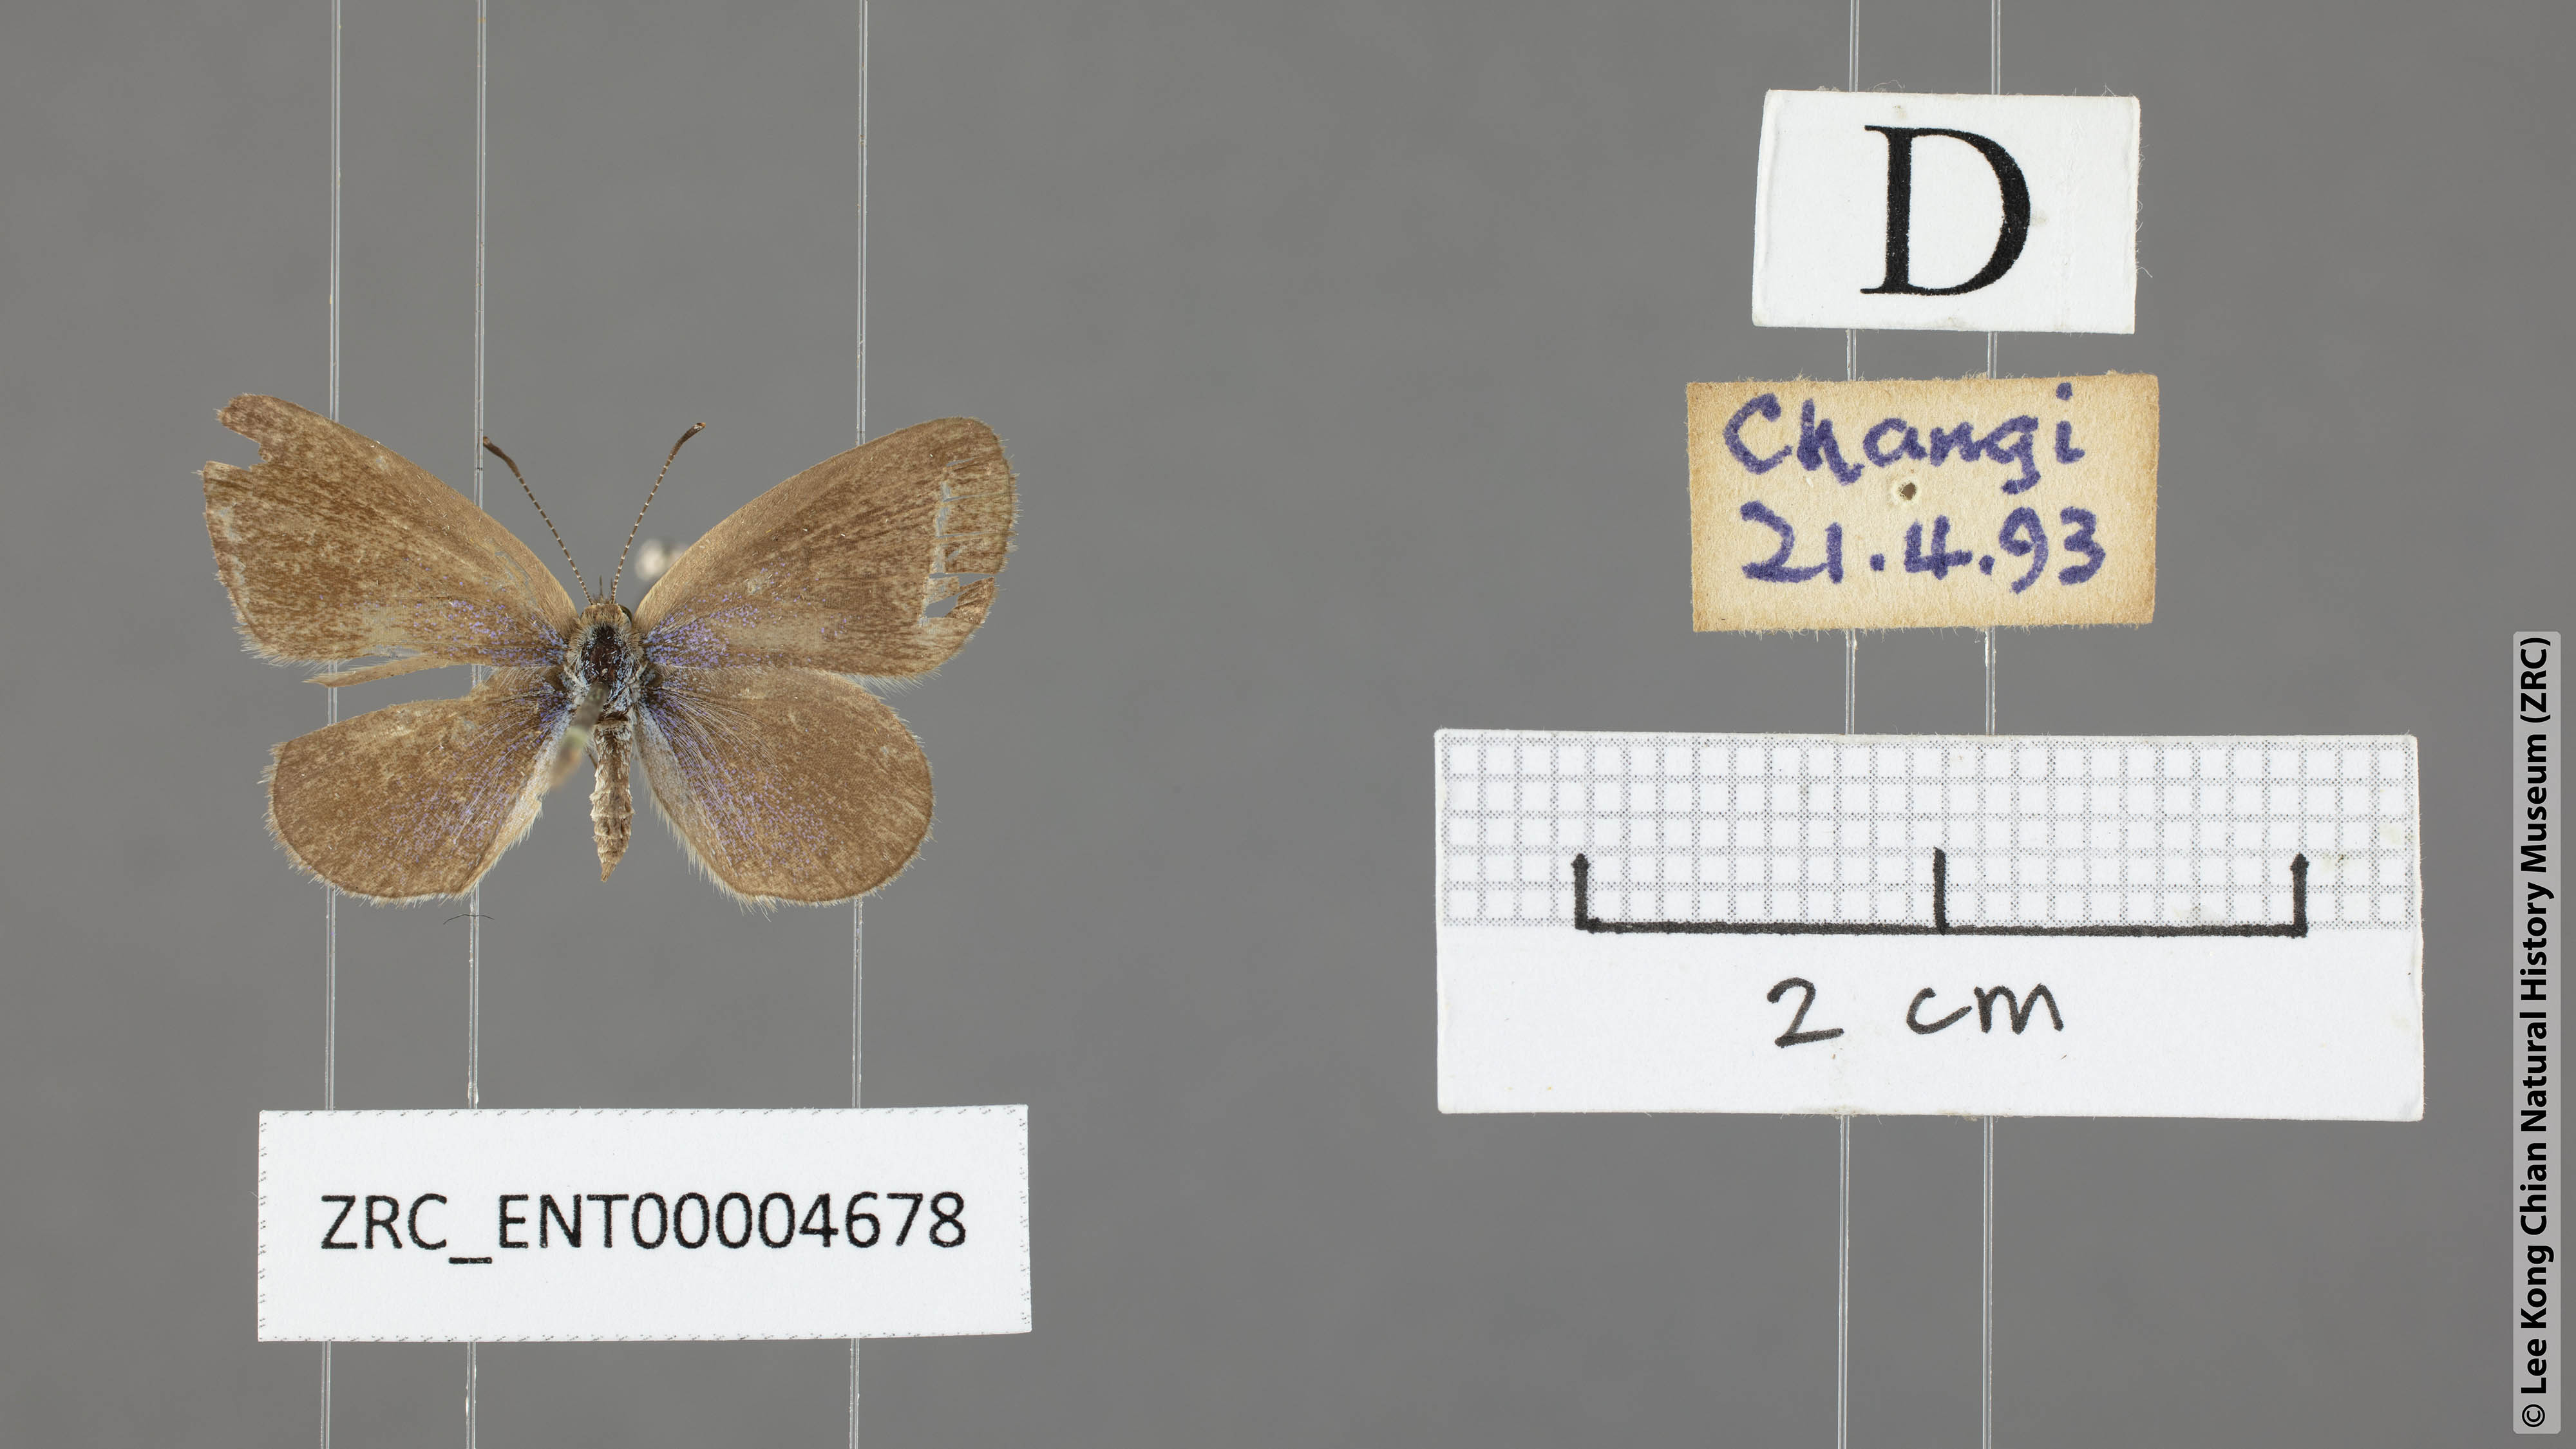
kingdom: Animalia
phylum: Arthropoda
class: Insecta
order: Lepidoptera
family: Lycaenidae
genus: Zizina
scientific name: Zizina otis
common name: Lesser grass blue
